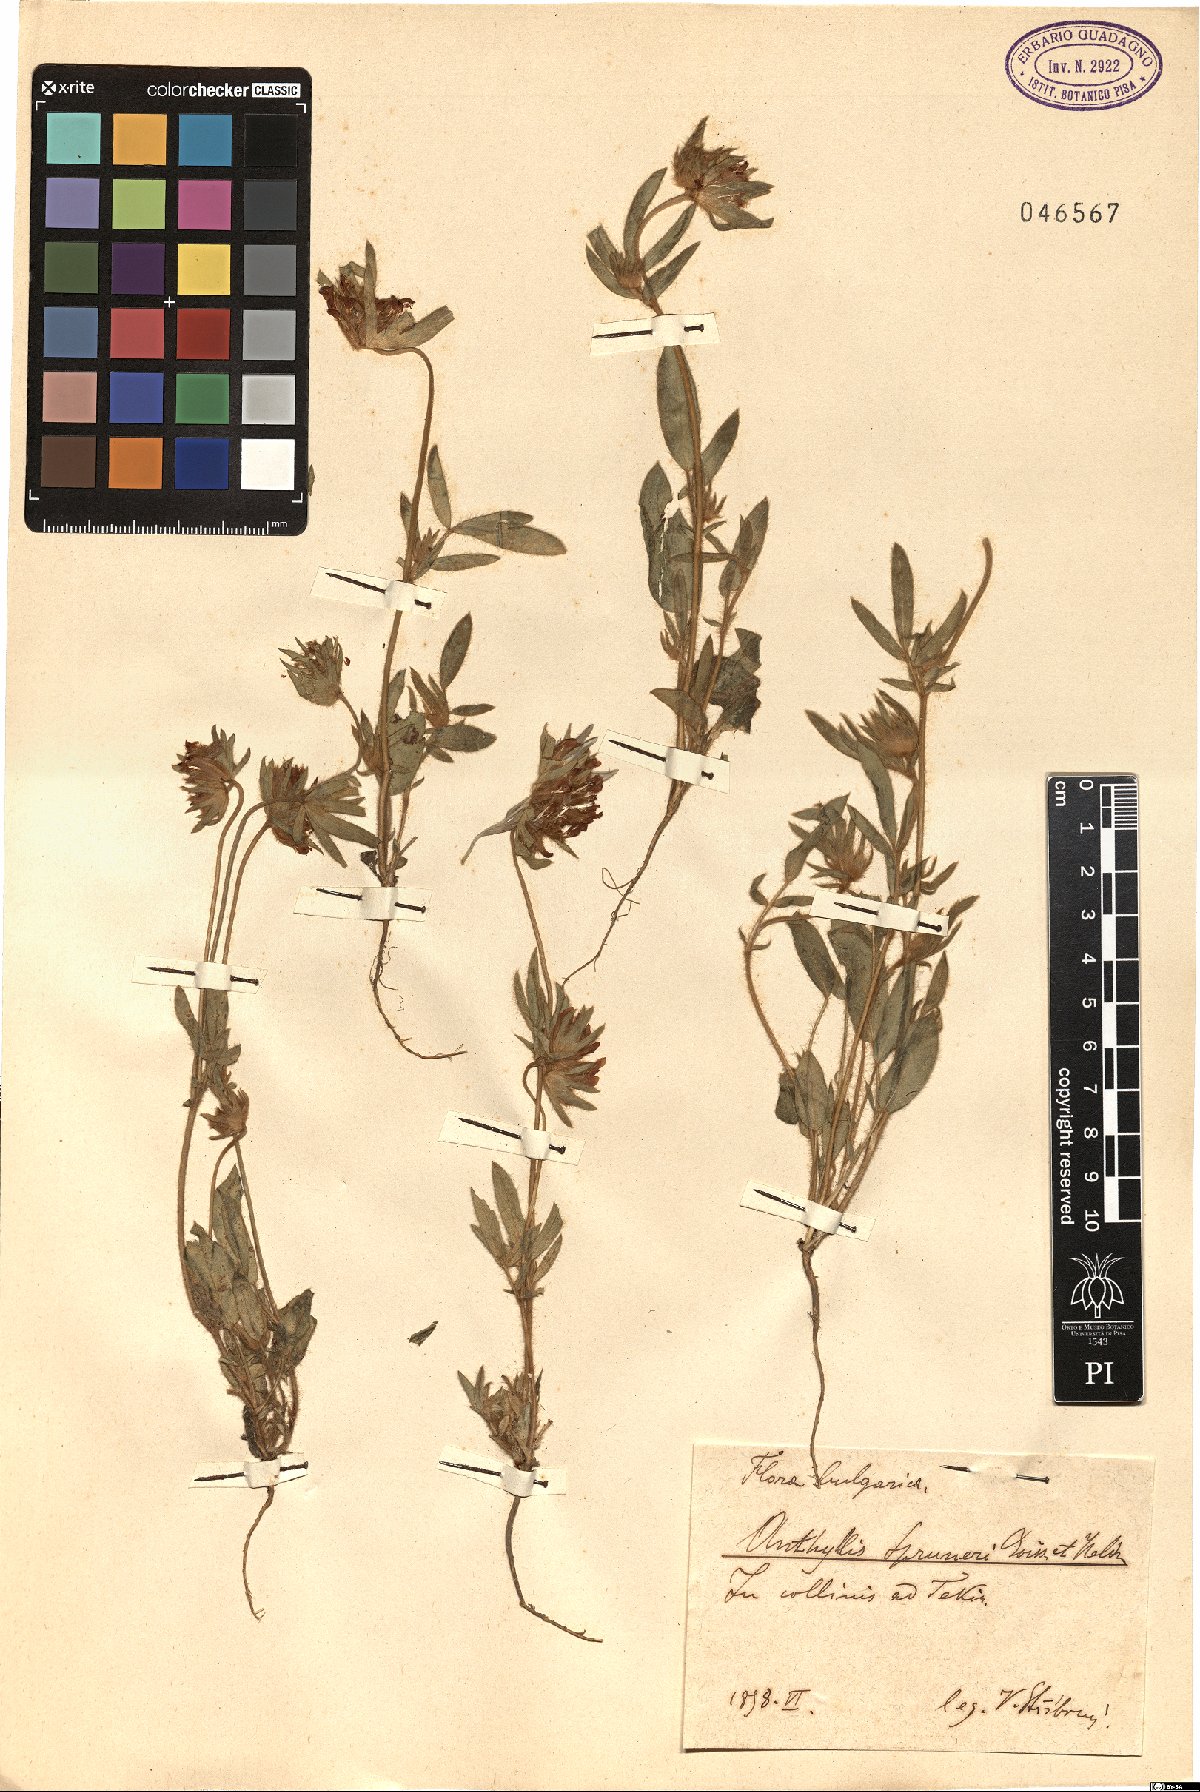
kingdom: Plantae
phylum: Tracheophyta
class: Magnoliopsida
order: Fabales
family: Fabaceae
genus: Anthyllis
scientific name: Anthyllis vulneraria
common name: Kidney vetch
